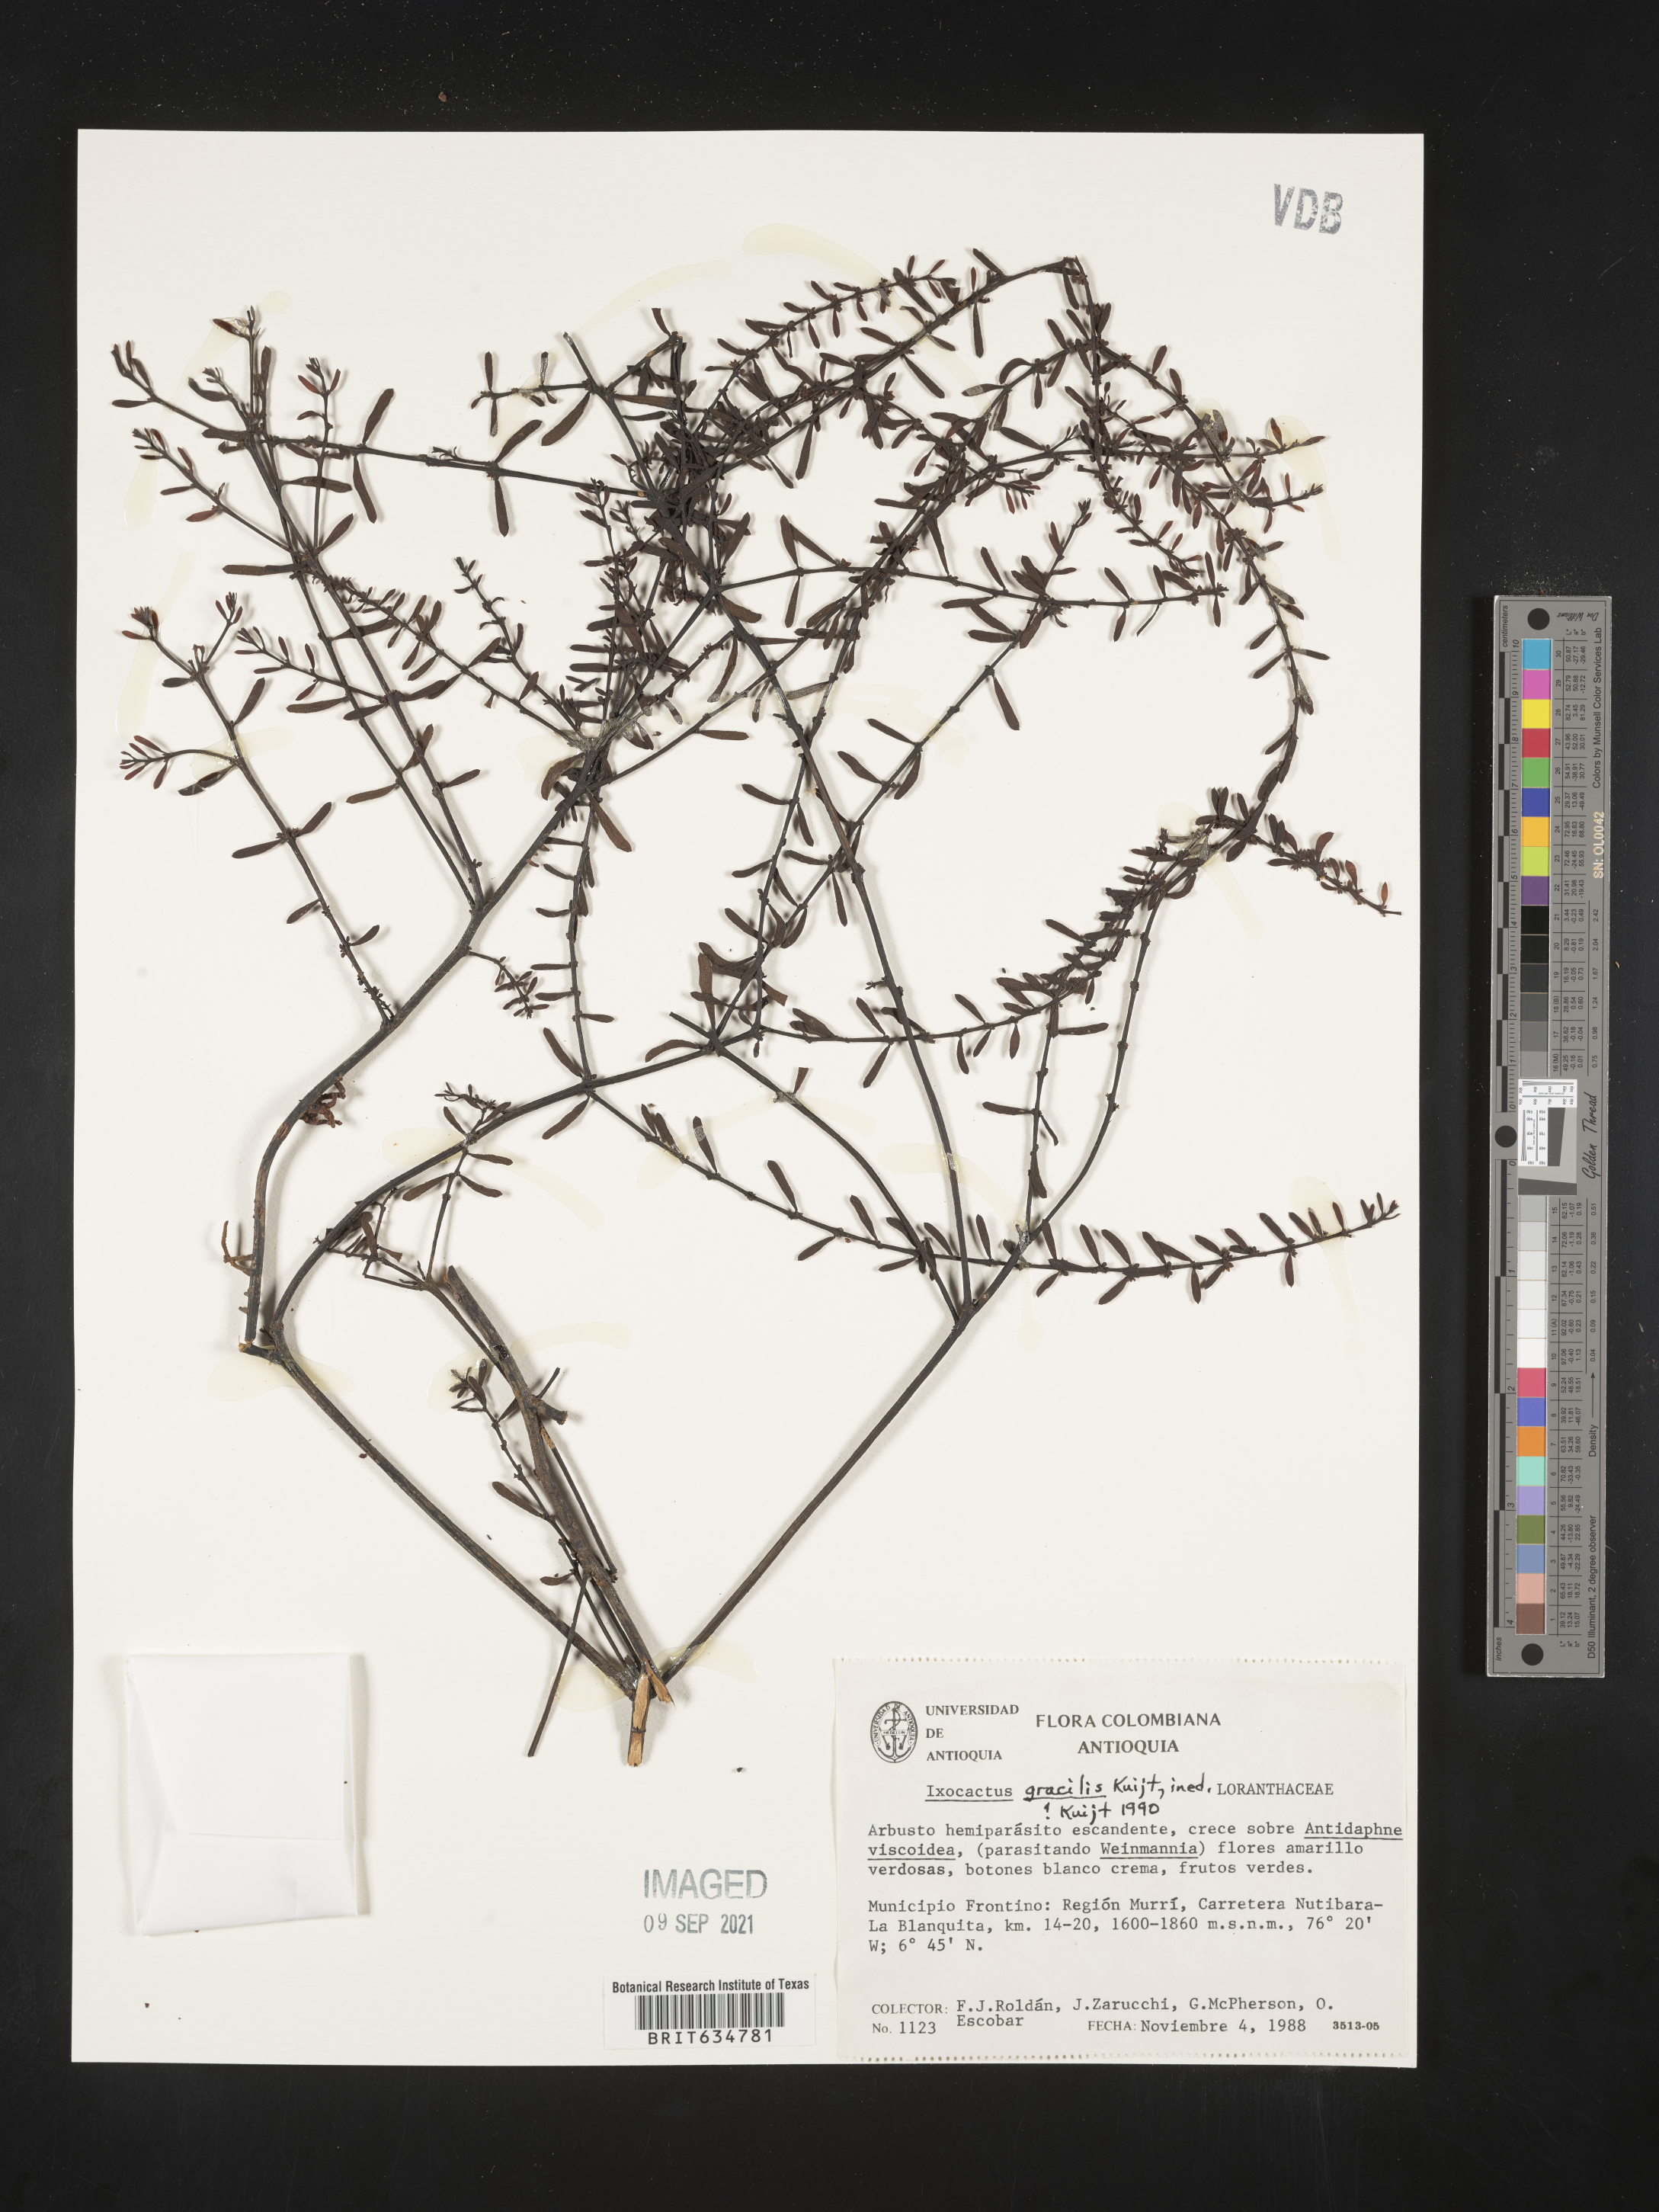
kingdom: Plantae
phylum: Tracheophyta
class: Magnoliopsida
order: Santalales
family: Loranthaceae
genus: Phthirusa
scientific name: Phthirusa
